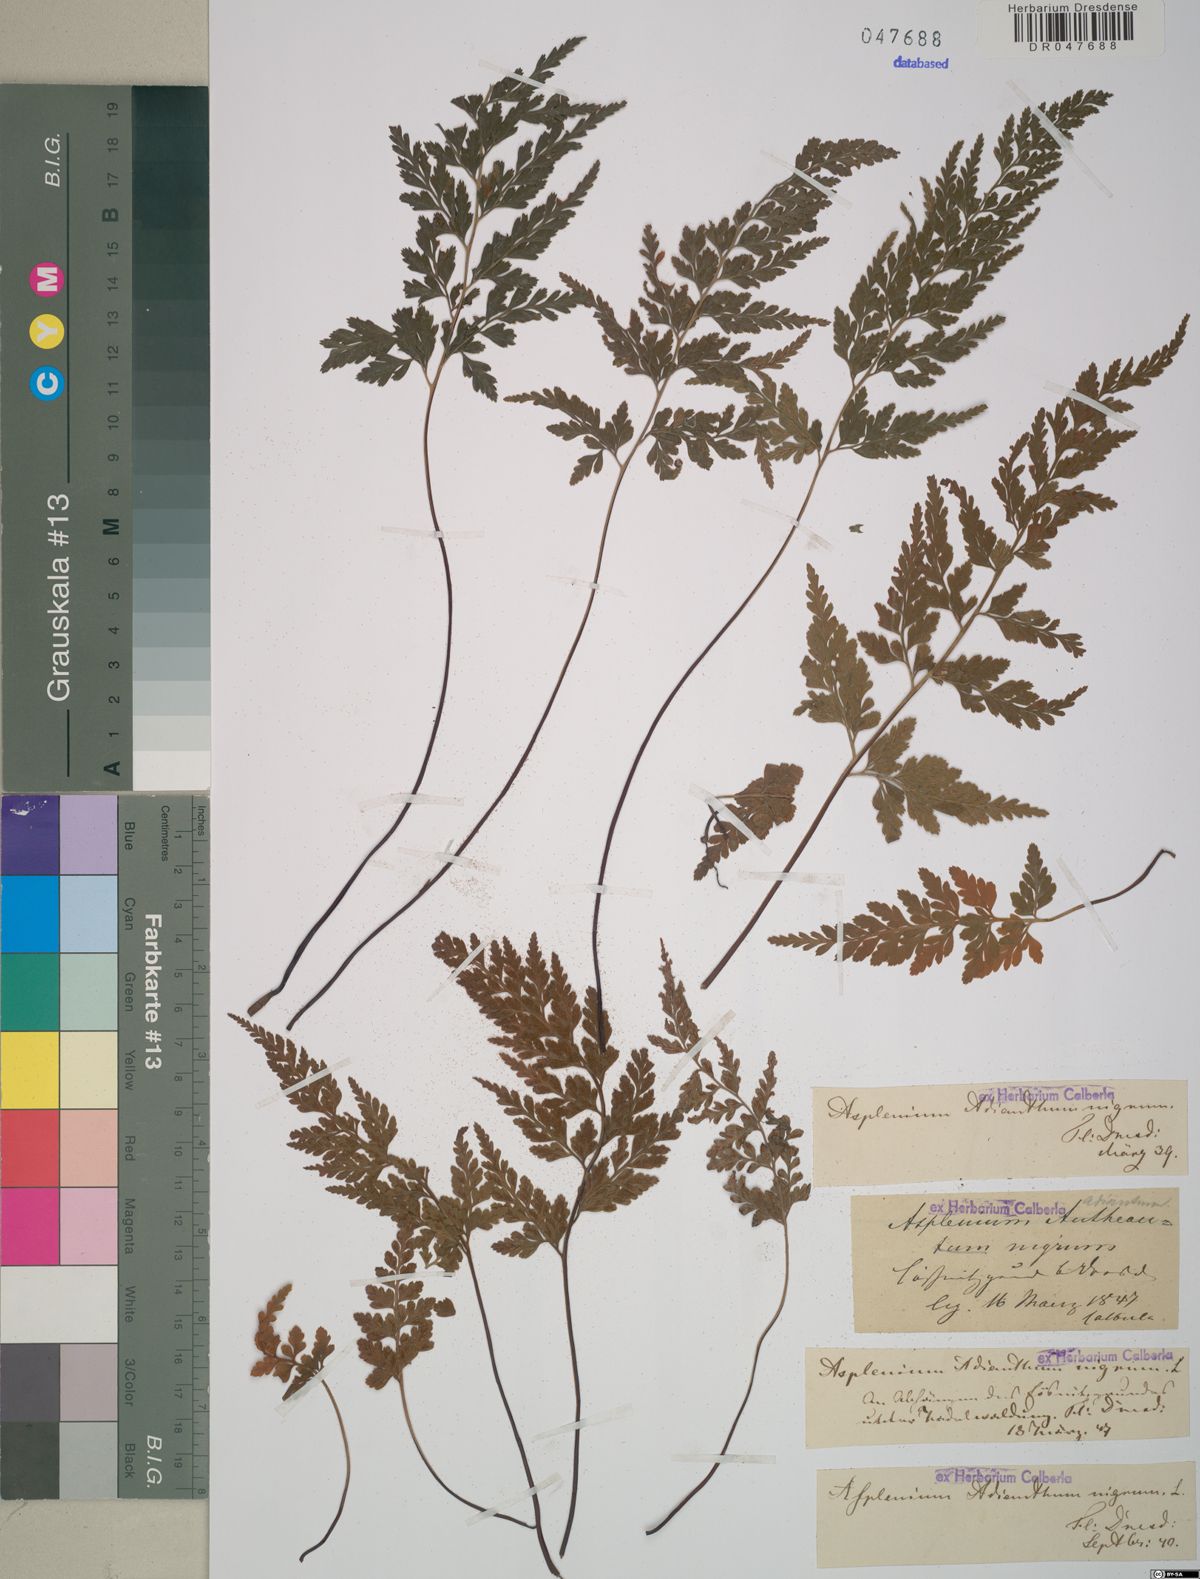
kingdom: Plantae
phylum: Tracheophyta
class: Polypodiopsida
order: Polypodiales
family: Aspleniaceae
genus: Asplenium
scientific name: Asplenium adiantum-nigrum
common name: Black spleenwort
